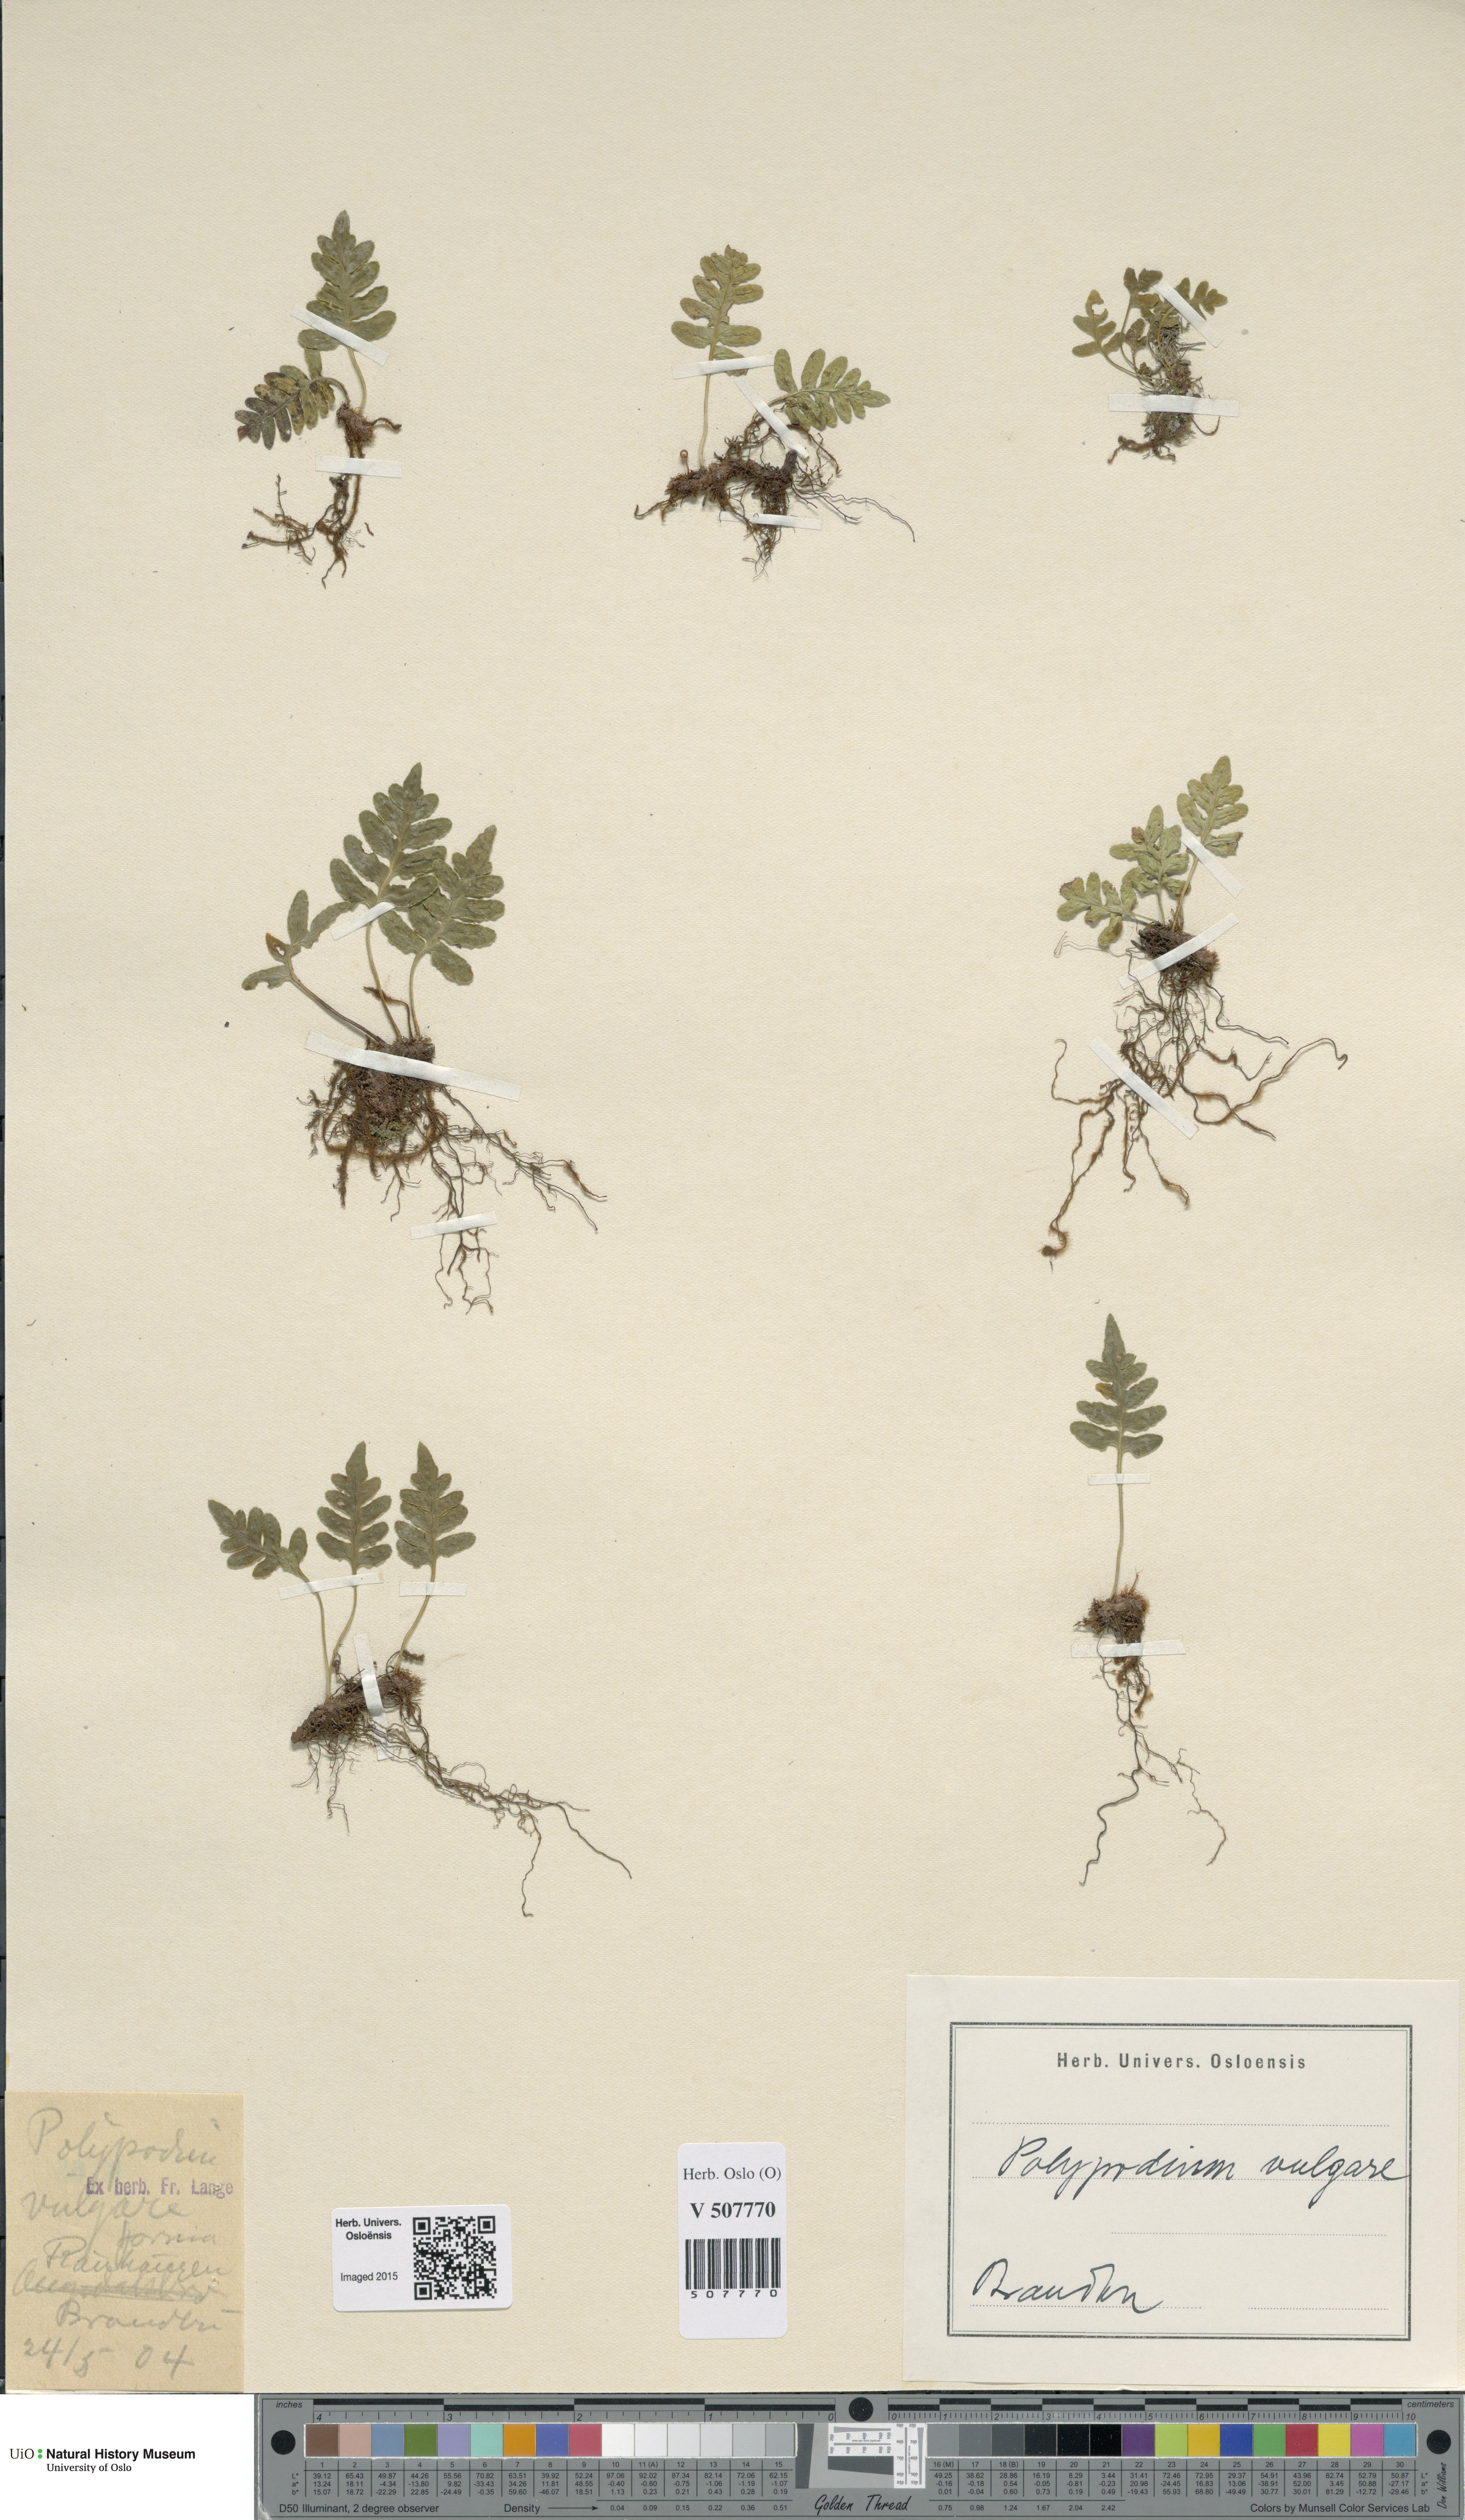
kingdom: Plantae
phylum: Tracheophyta
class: Polypodiopsida
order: Polypodiales
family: Polypodiaceae
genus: Polypodium
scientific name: Polypodium vulgare
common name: Common polypody
